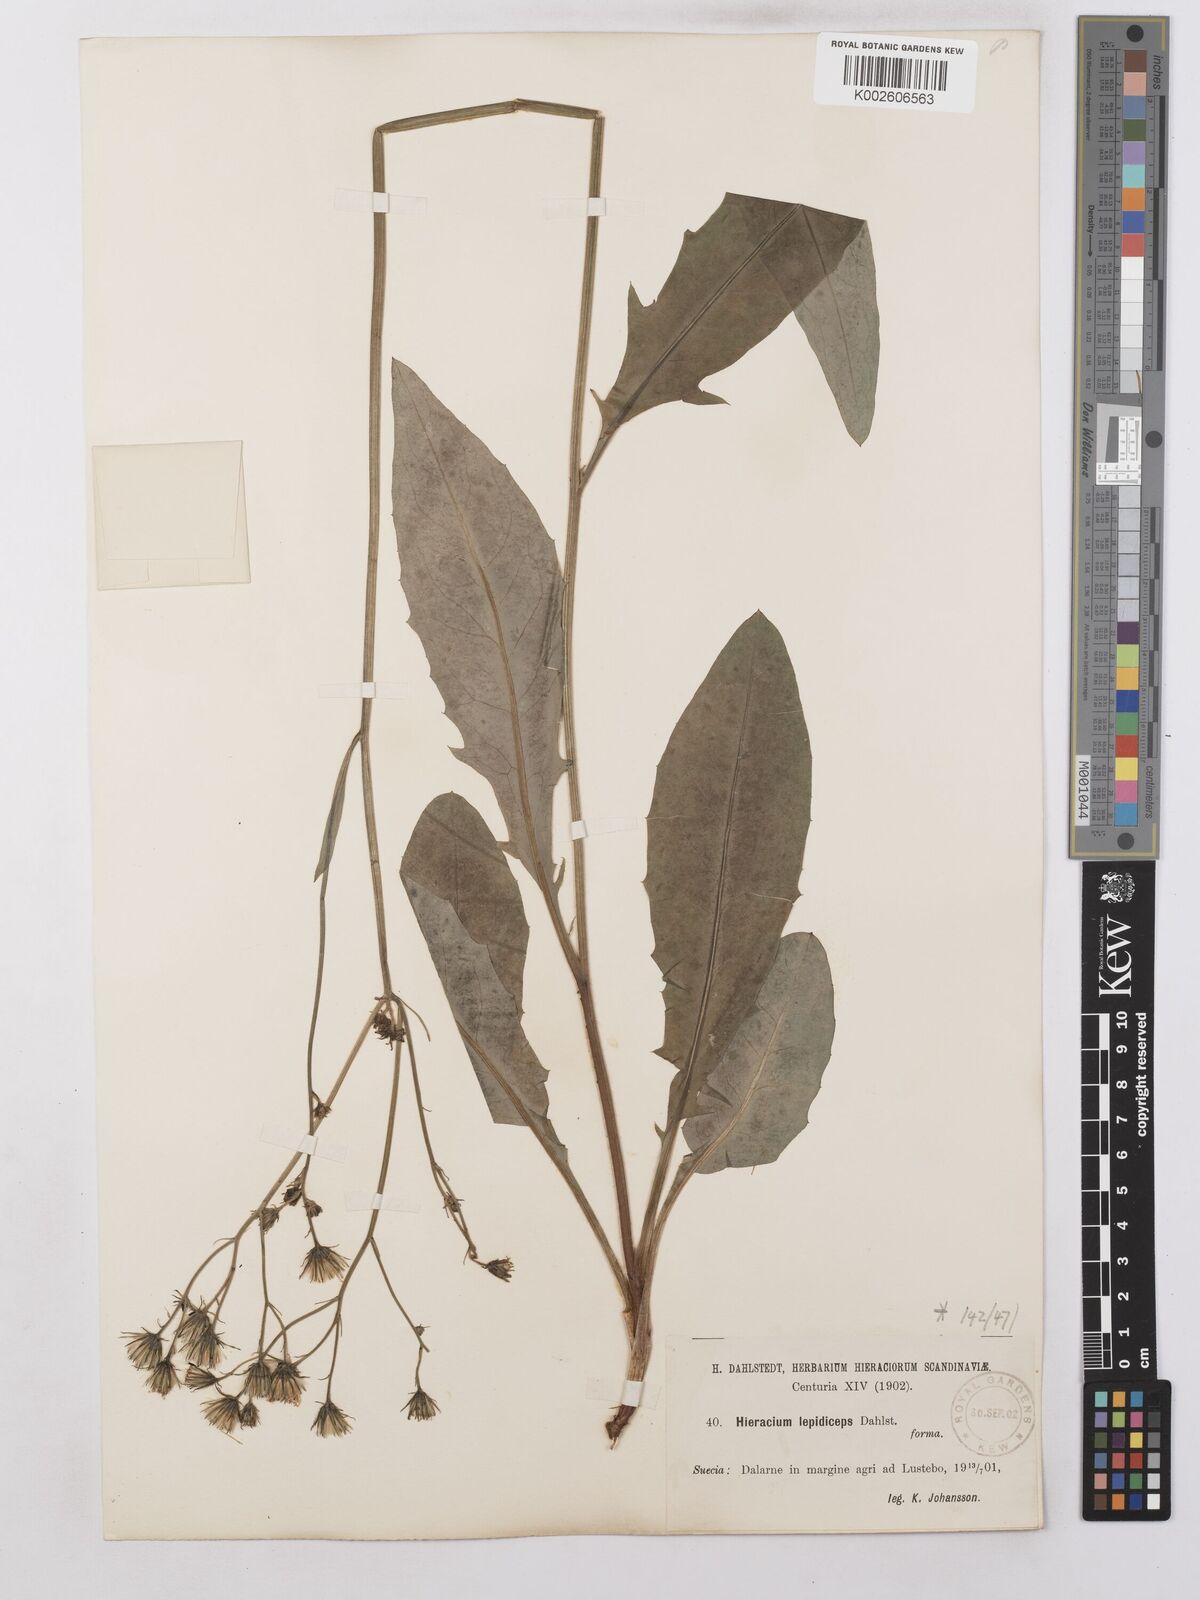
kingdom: Plantae
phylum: Tracheophyta
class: Magnoliopsida
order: Asterales
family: Asteraceae
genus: Hieracium
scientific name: Hieracium lachenalii
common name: Common hawkweed
